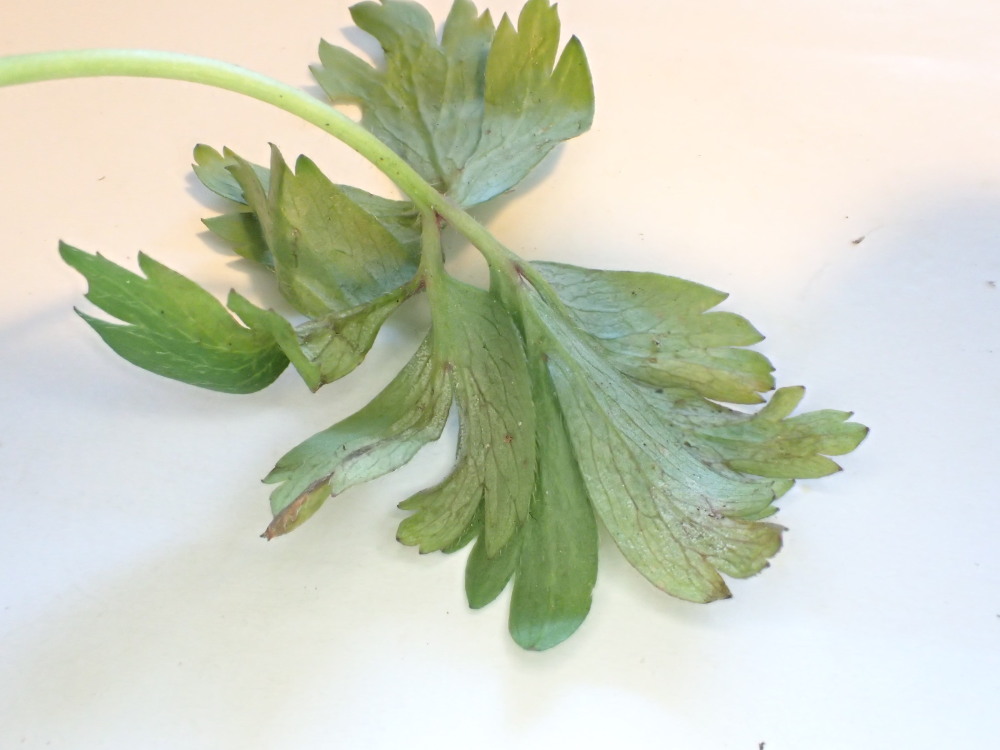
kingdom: Chromista
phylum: Oomycota
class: Peronosporea
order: Peronosporales
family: Peronosporaceae
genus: Plasmoverna
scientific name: Plasmoverna pygmaea
